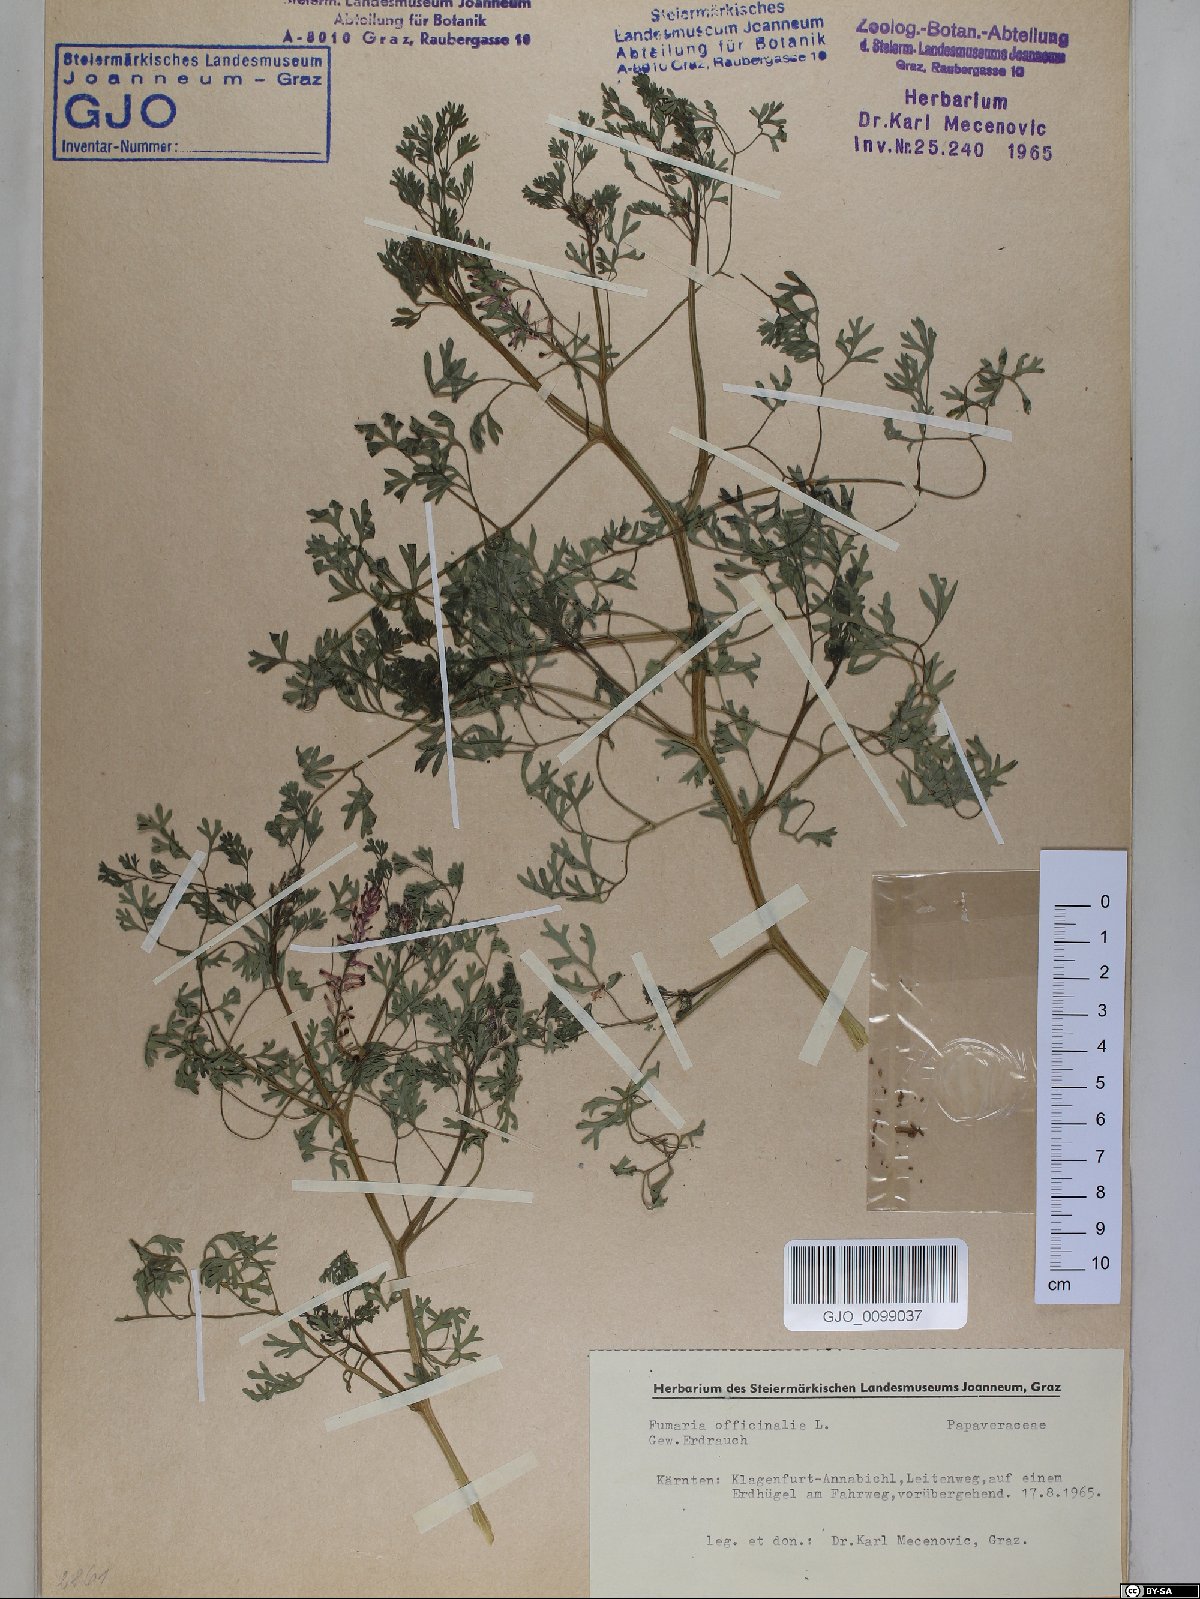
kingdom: Plantae
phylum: Tracheophyta
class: Magnoliopsida
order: Ranunculales
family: Papaveraceae
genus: Fumaria
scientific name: Fumaria officinalis
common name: Common fumitory
